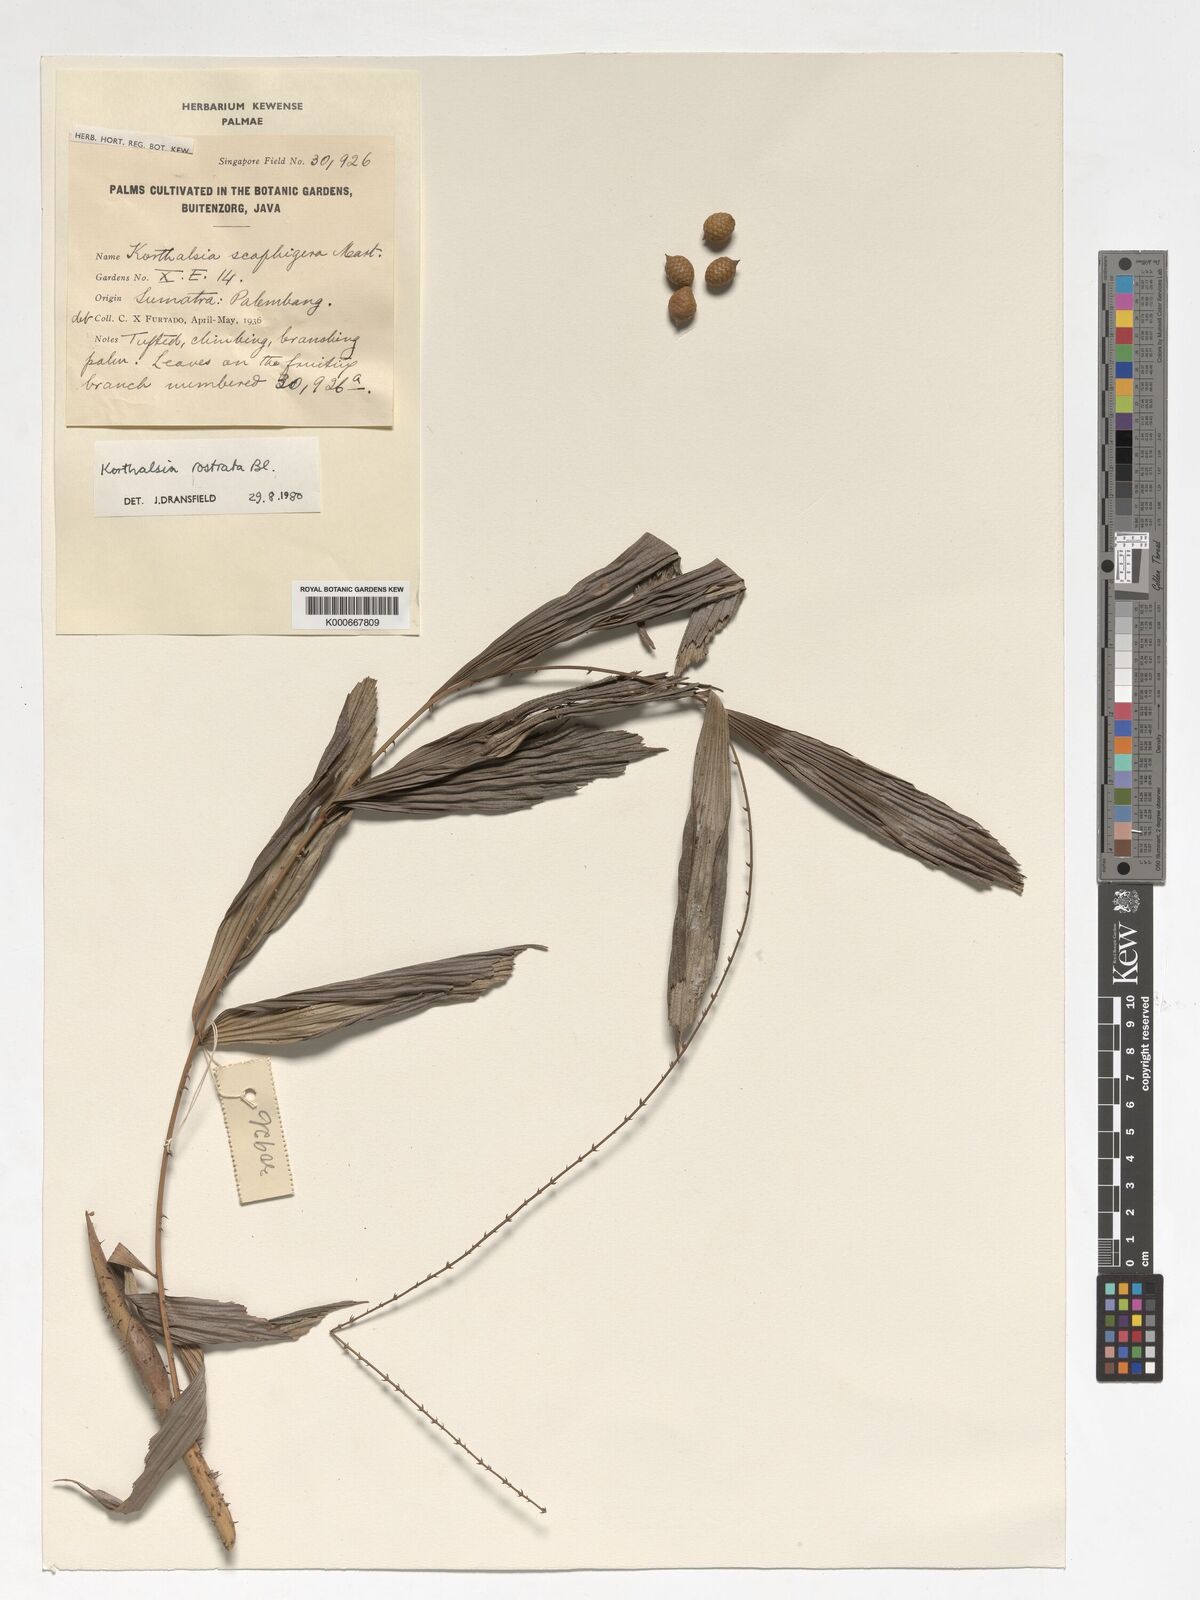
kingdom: Plantae
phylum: Tracheophyta
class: Liliopsida
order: Arecales
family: Arecaceae
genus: Korthalsia
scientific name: Korthalsia rostrata
